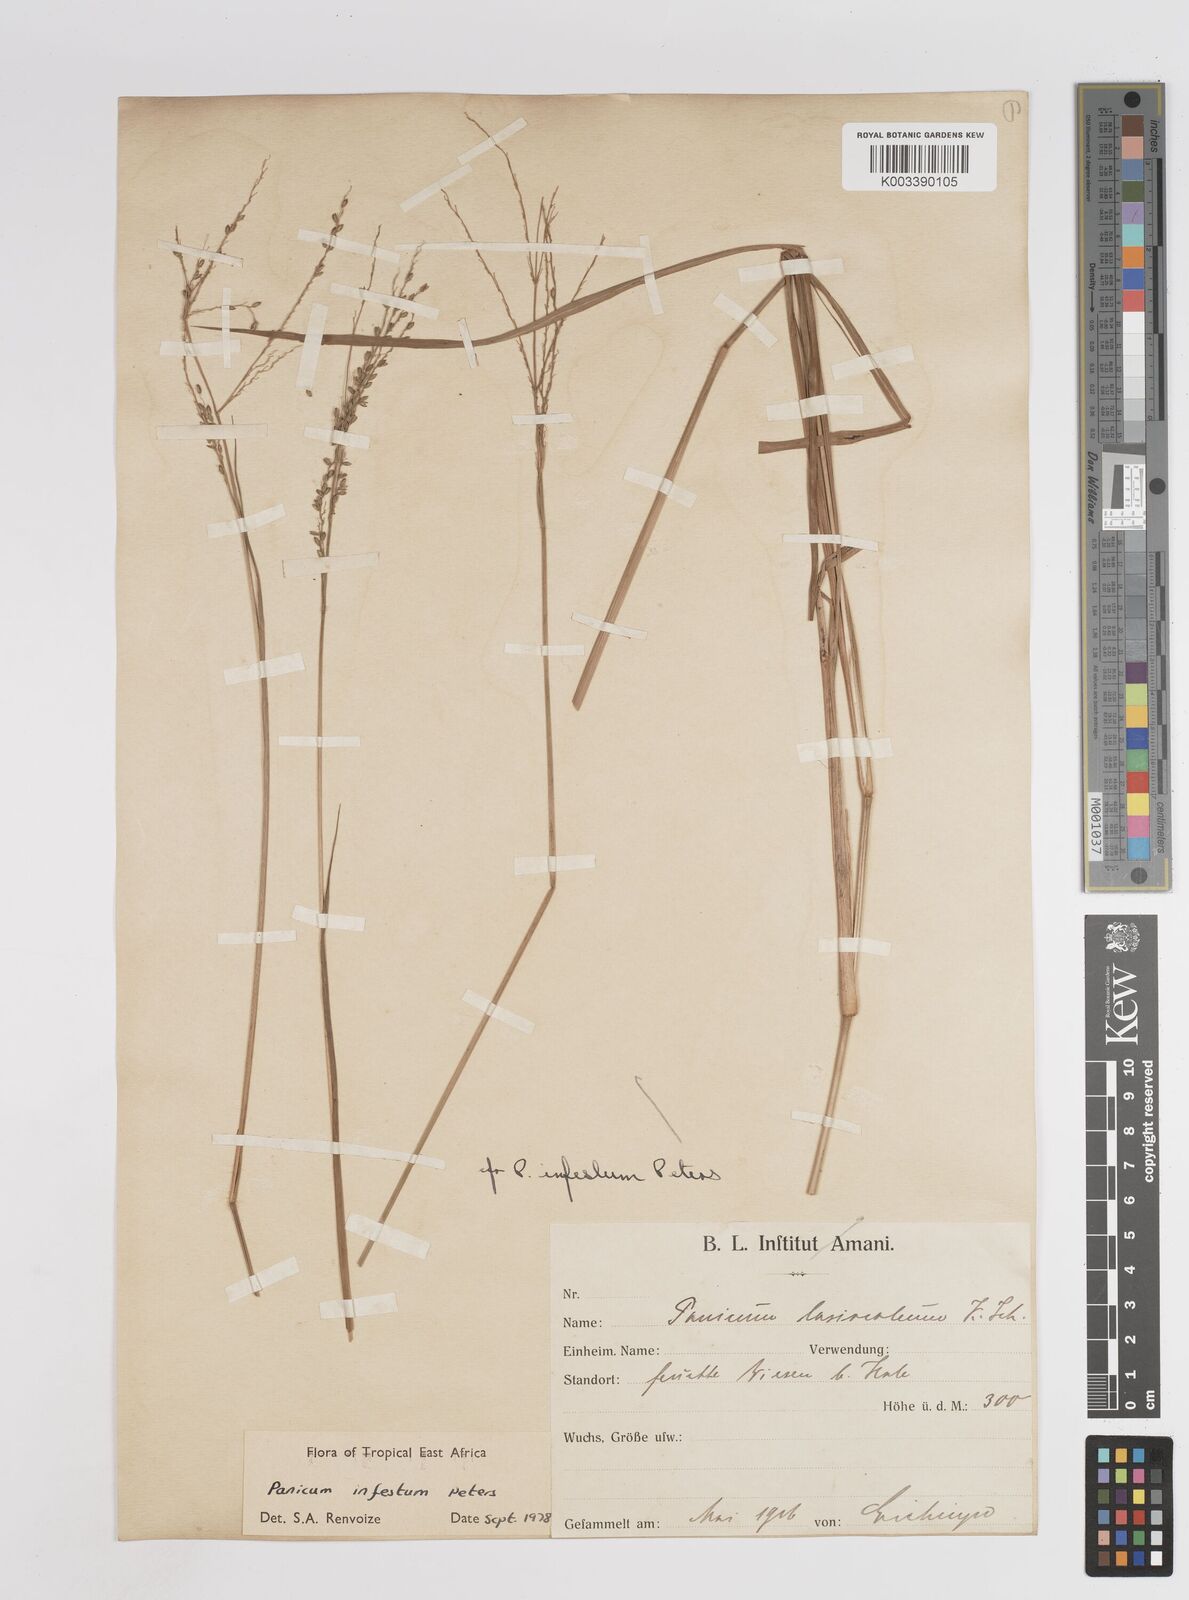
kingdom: Plantae
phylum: Tracheophyta
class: Liliopsida
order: Poales
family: Poaceae
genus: Megathyrsus
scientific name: Megathyrsus infestus
